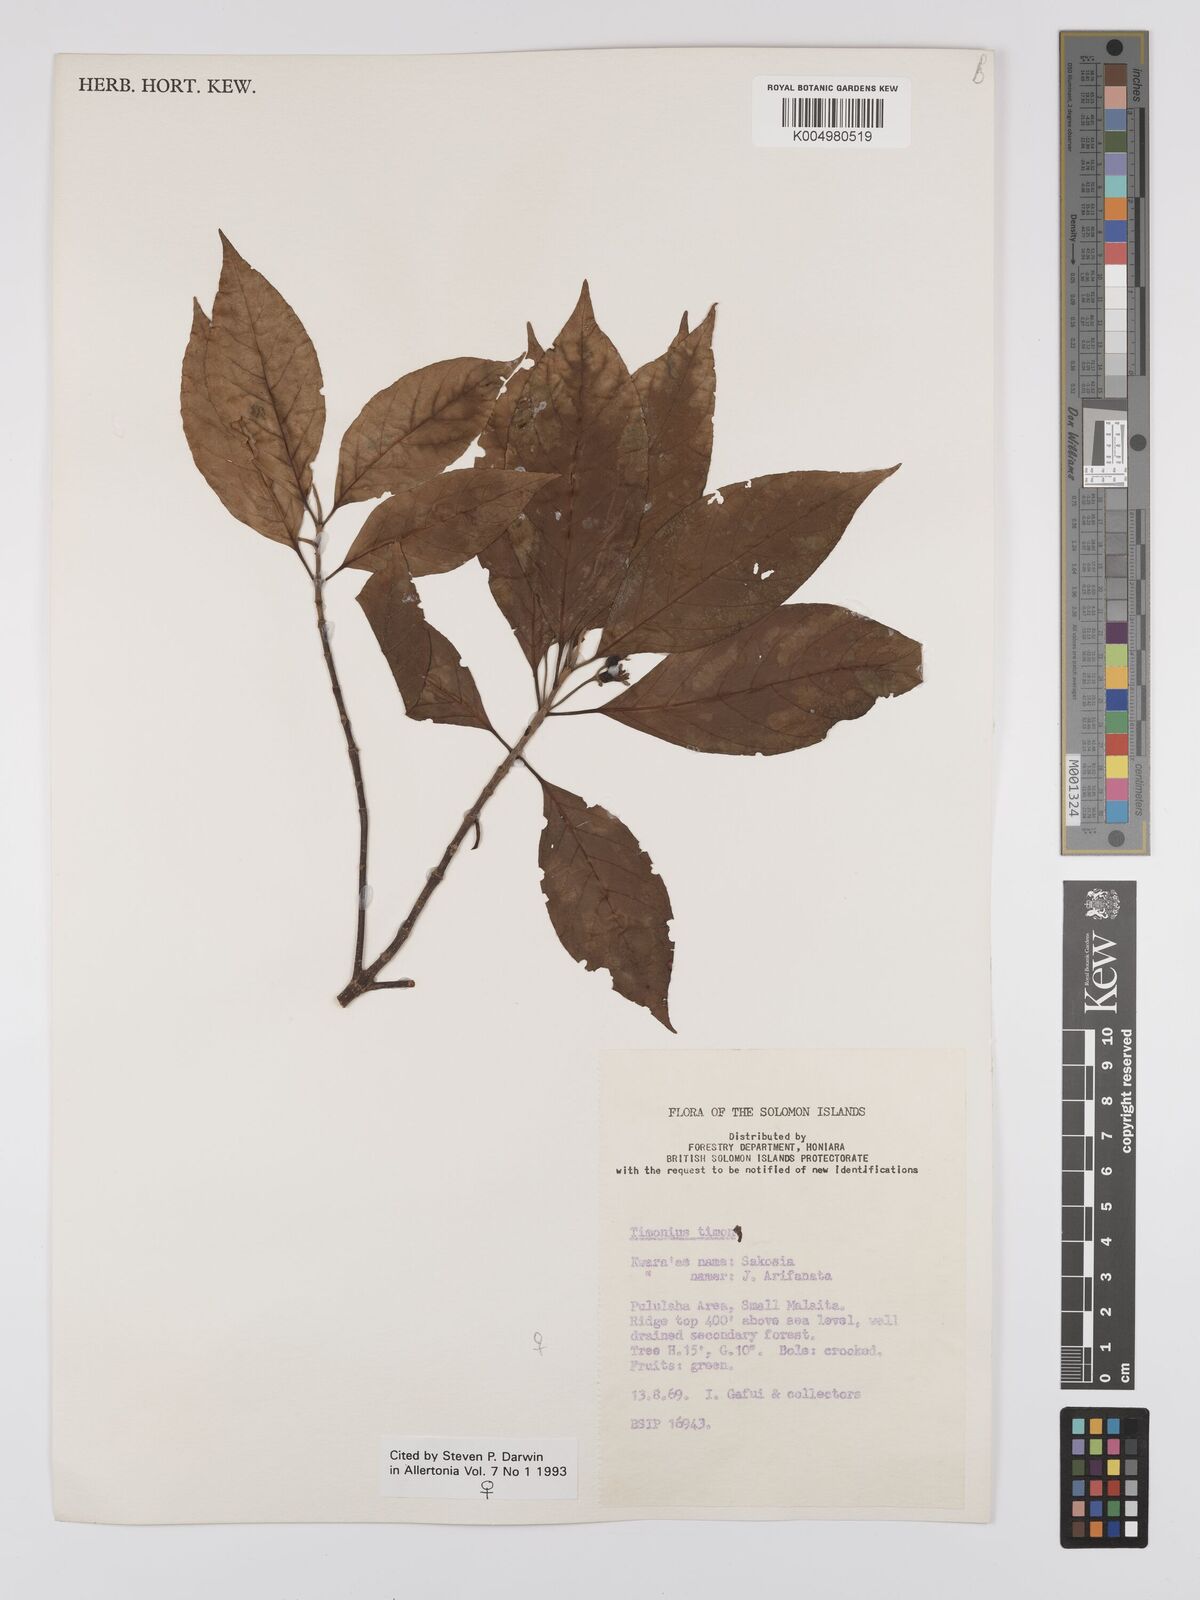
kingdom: Plantae
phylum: Tracheophyta
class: Magnoliopsida
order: Gentianales
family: Rubiaceae
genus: Timonius
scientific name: Timonius timon
